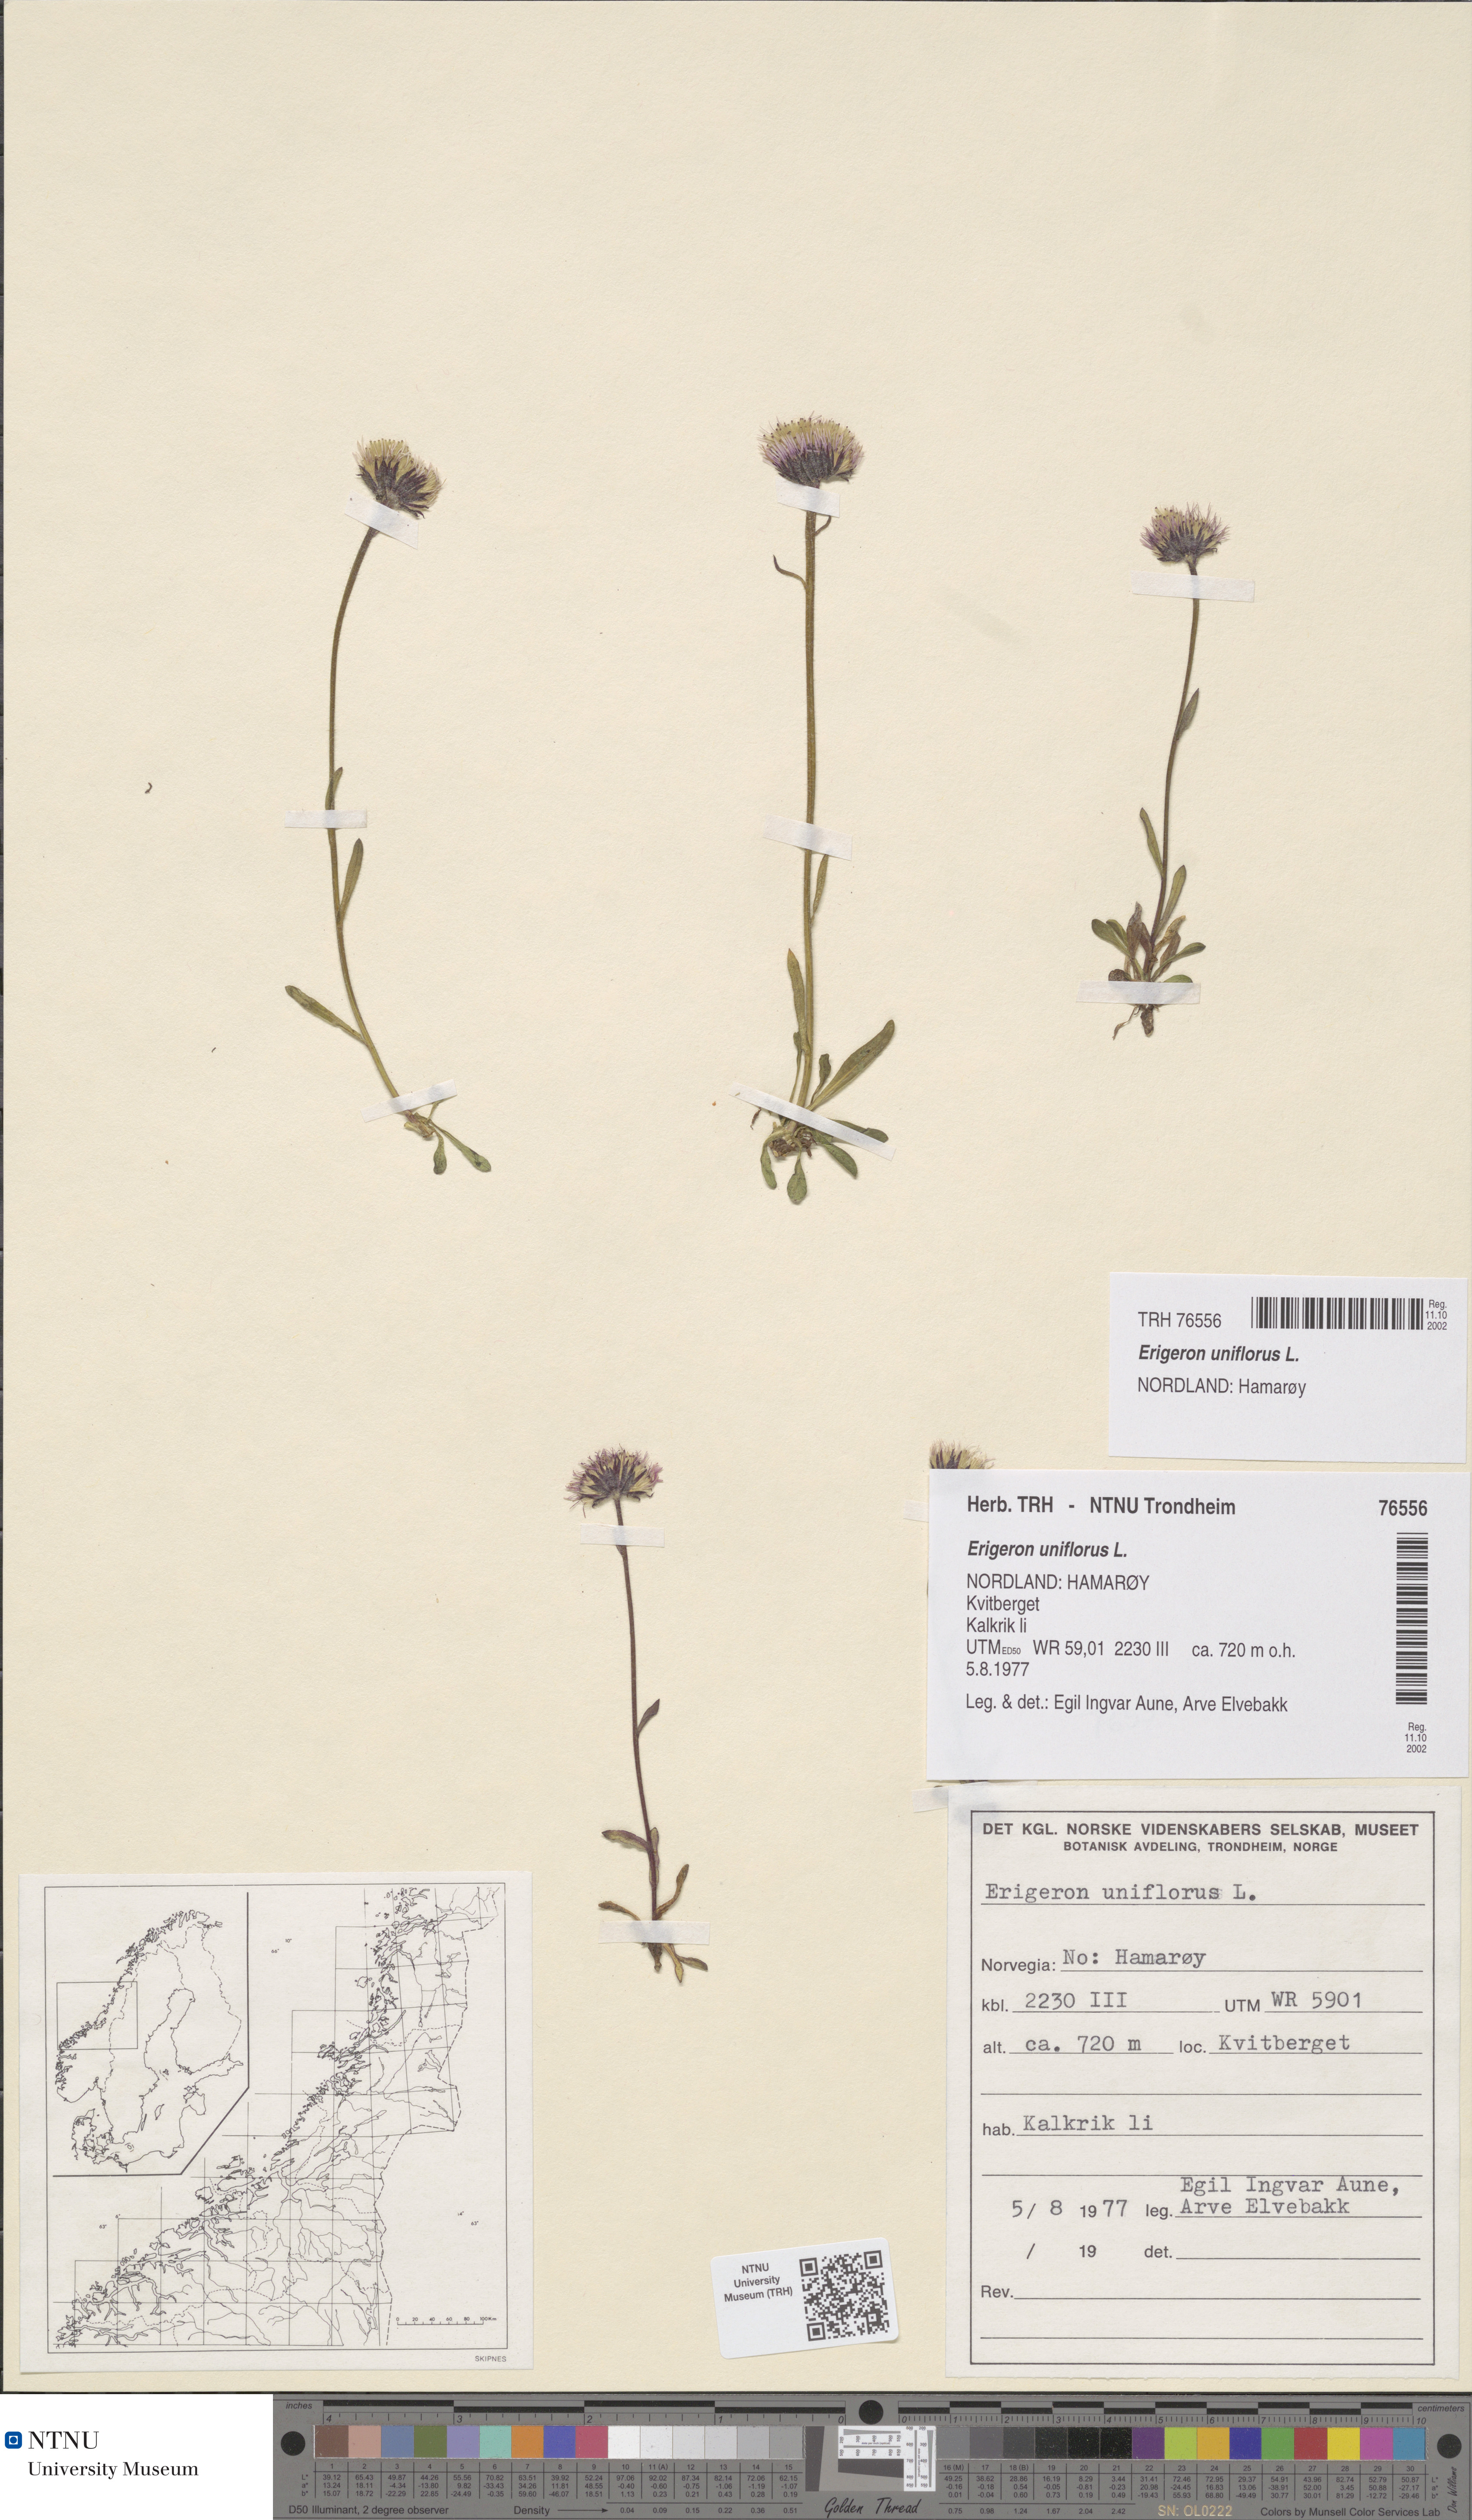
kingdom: Plantae
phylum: Tracheophyta
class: Magnoliopsida
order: Asterales
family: Asteraceae
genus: Erigeron
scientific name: Erigeron uniflorus
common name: Northern daisy
